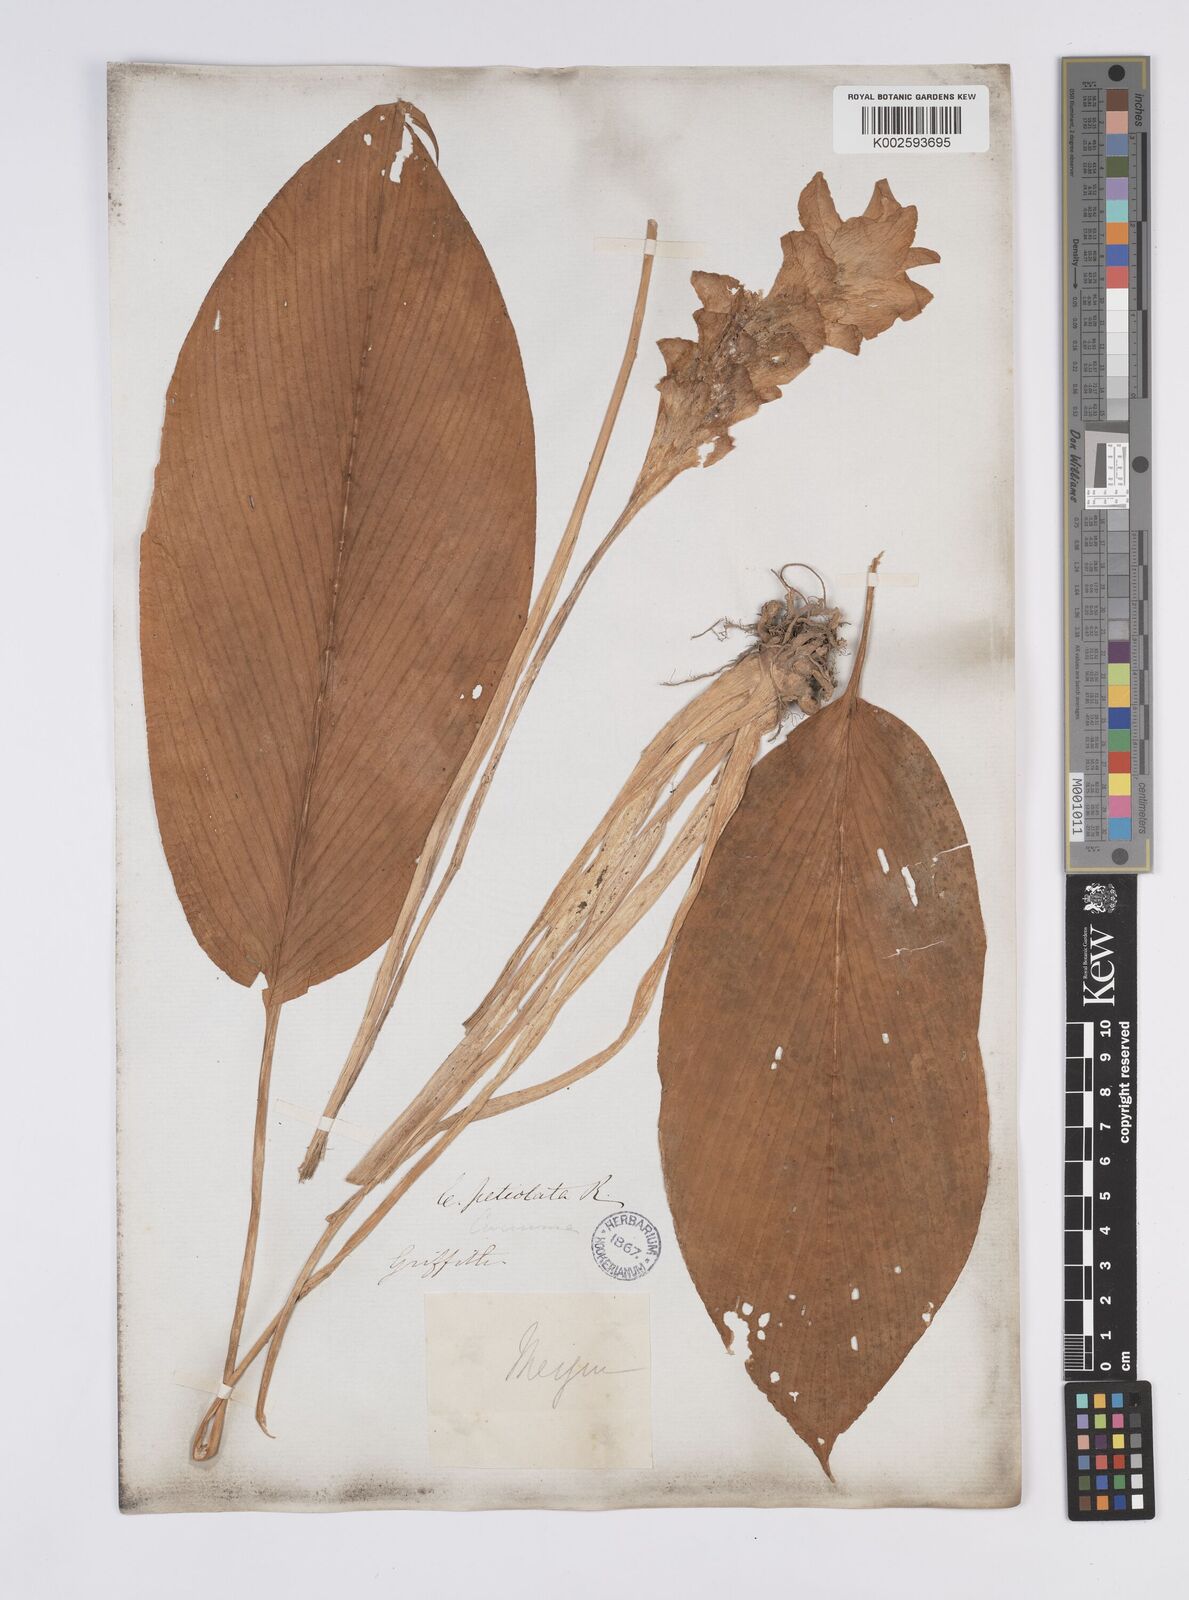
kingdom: Plantae
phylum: Tracheophyta
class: Liliopsida
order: Zingiberales
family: Zingiberaceae
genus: Curcuma
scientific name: Curcuma petiolata
